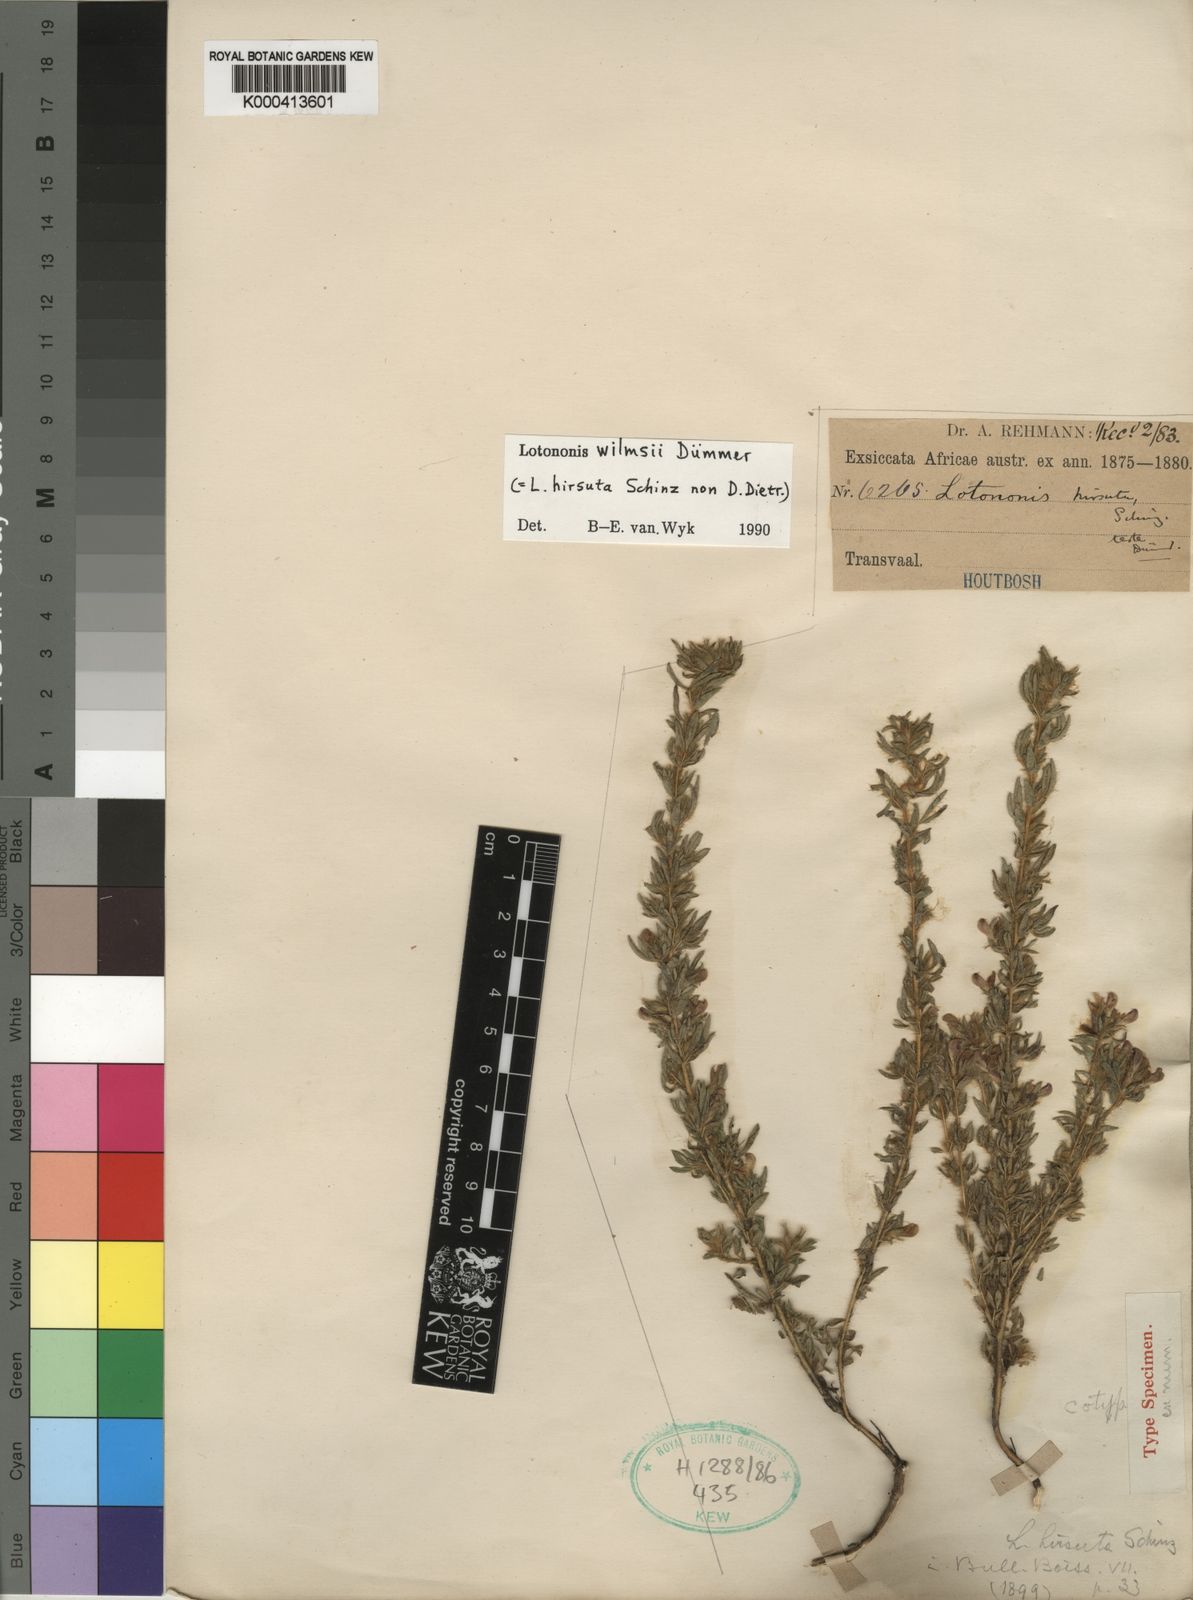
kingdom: Plantae
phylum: Tracheophyta
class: Magnoliopsida
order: Fabales
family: Fabaceae
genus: Lotononis
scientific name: Lotononis wilmsii
